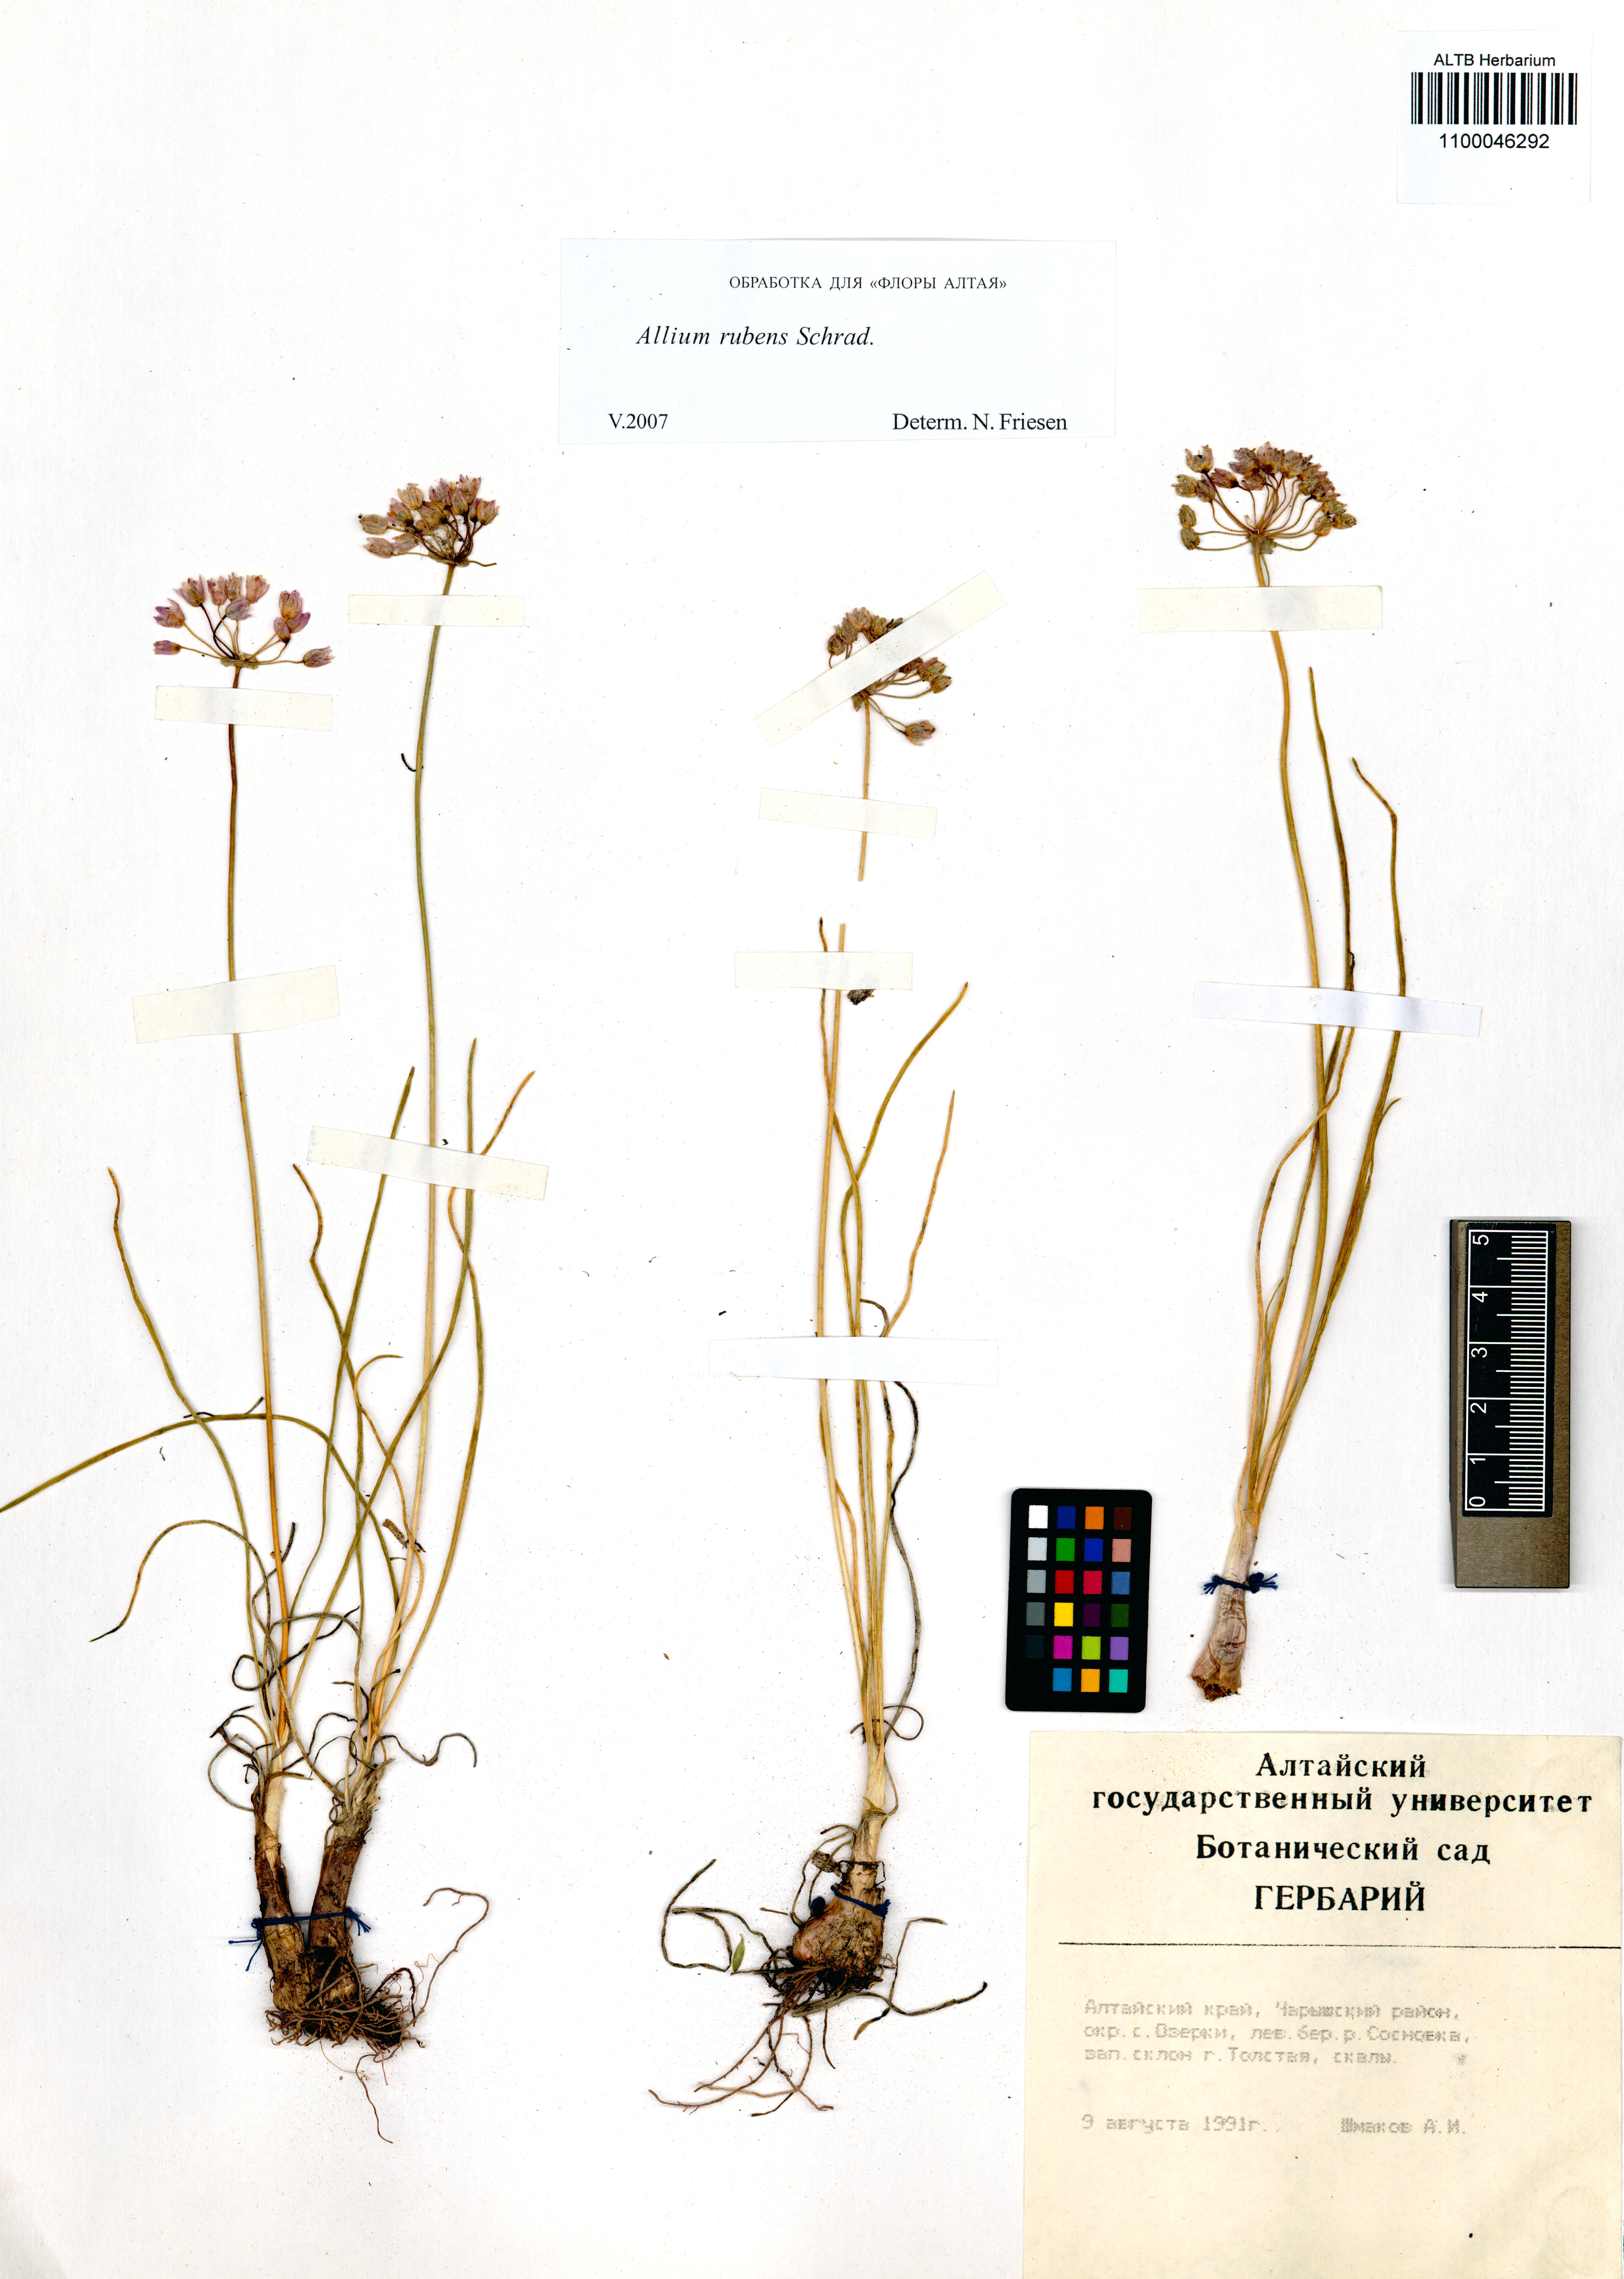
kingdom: Plantae
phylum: Tracheophyta
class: Liliopsida
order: Asparagales
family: Amaryllidaceae
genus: Allium
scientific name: Allium rubens
